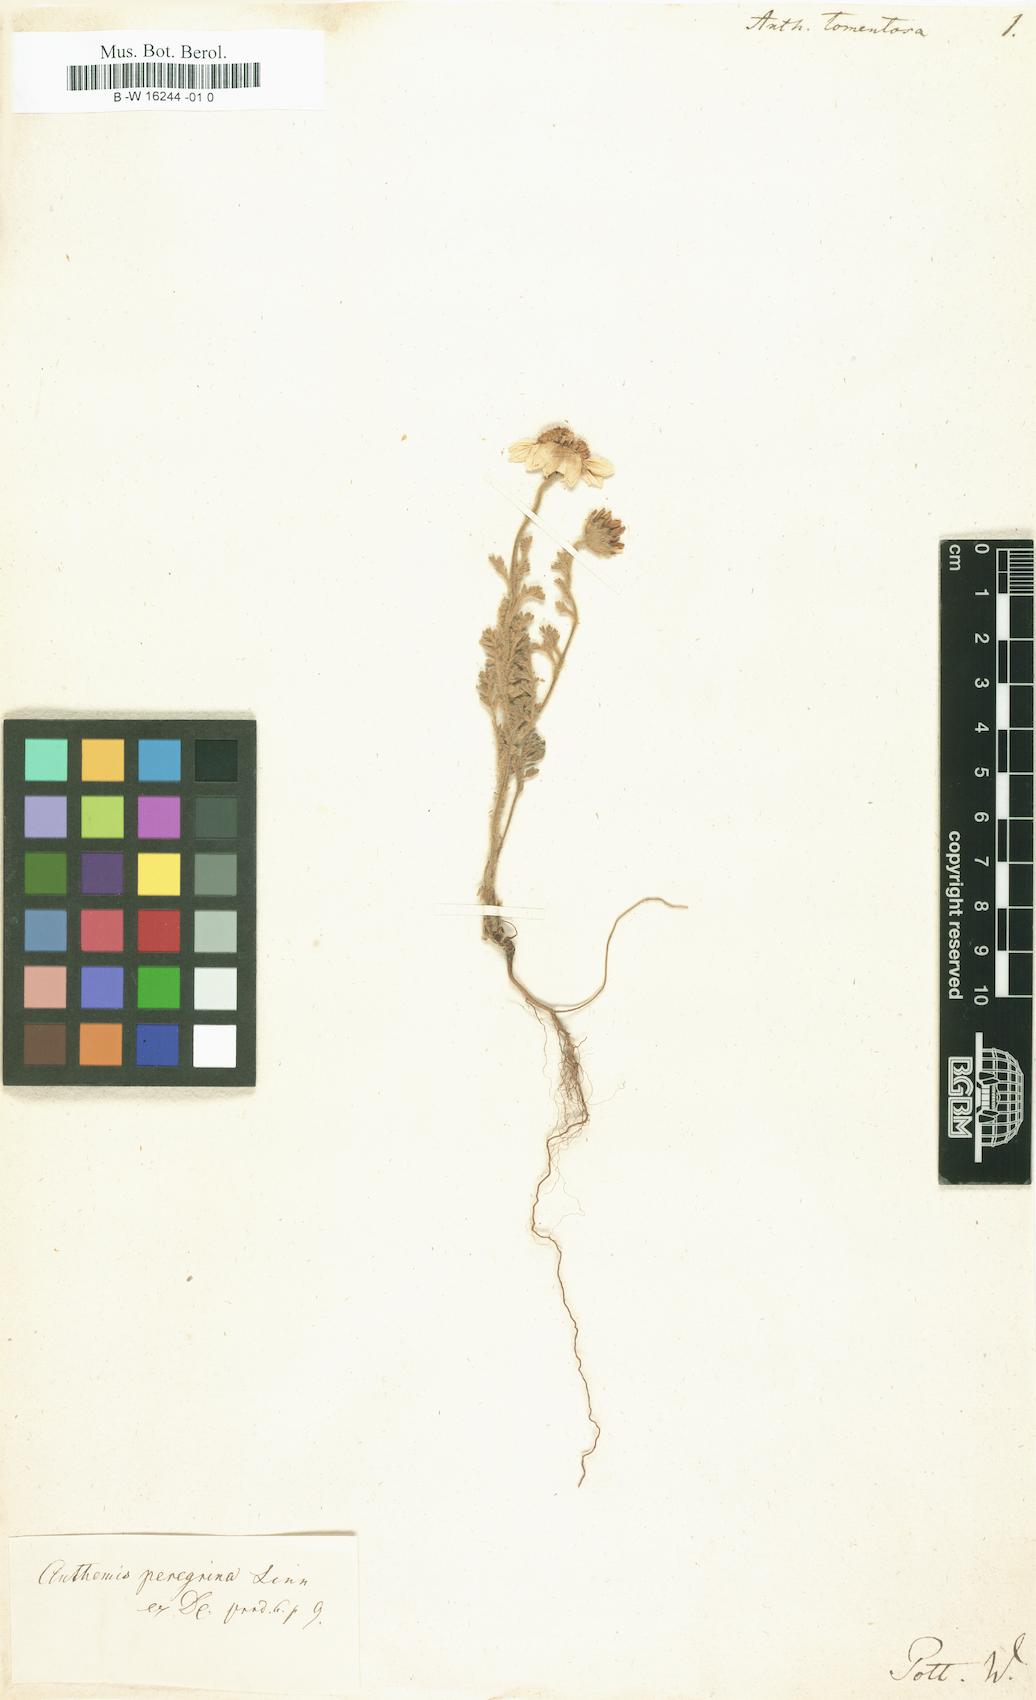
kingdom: Plantae
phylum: Tracheophyta
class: Magnoliopsida
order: Asterales
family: Asteraceae
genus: Anthemis
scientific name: Anthemis tomentosa
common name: Woolly chamomile
